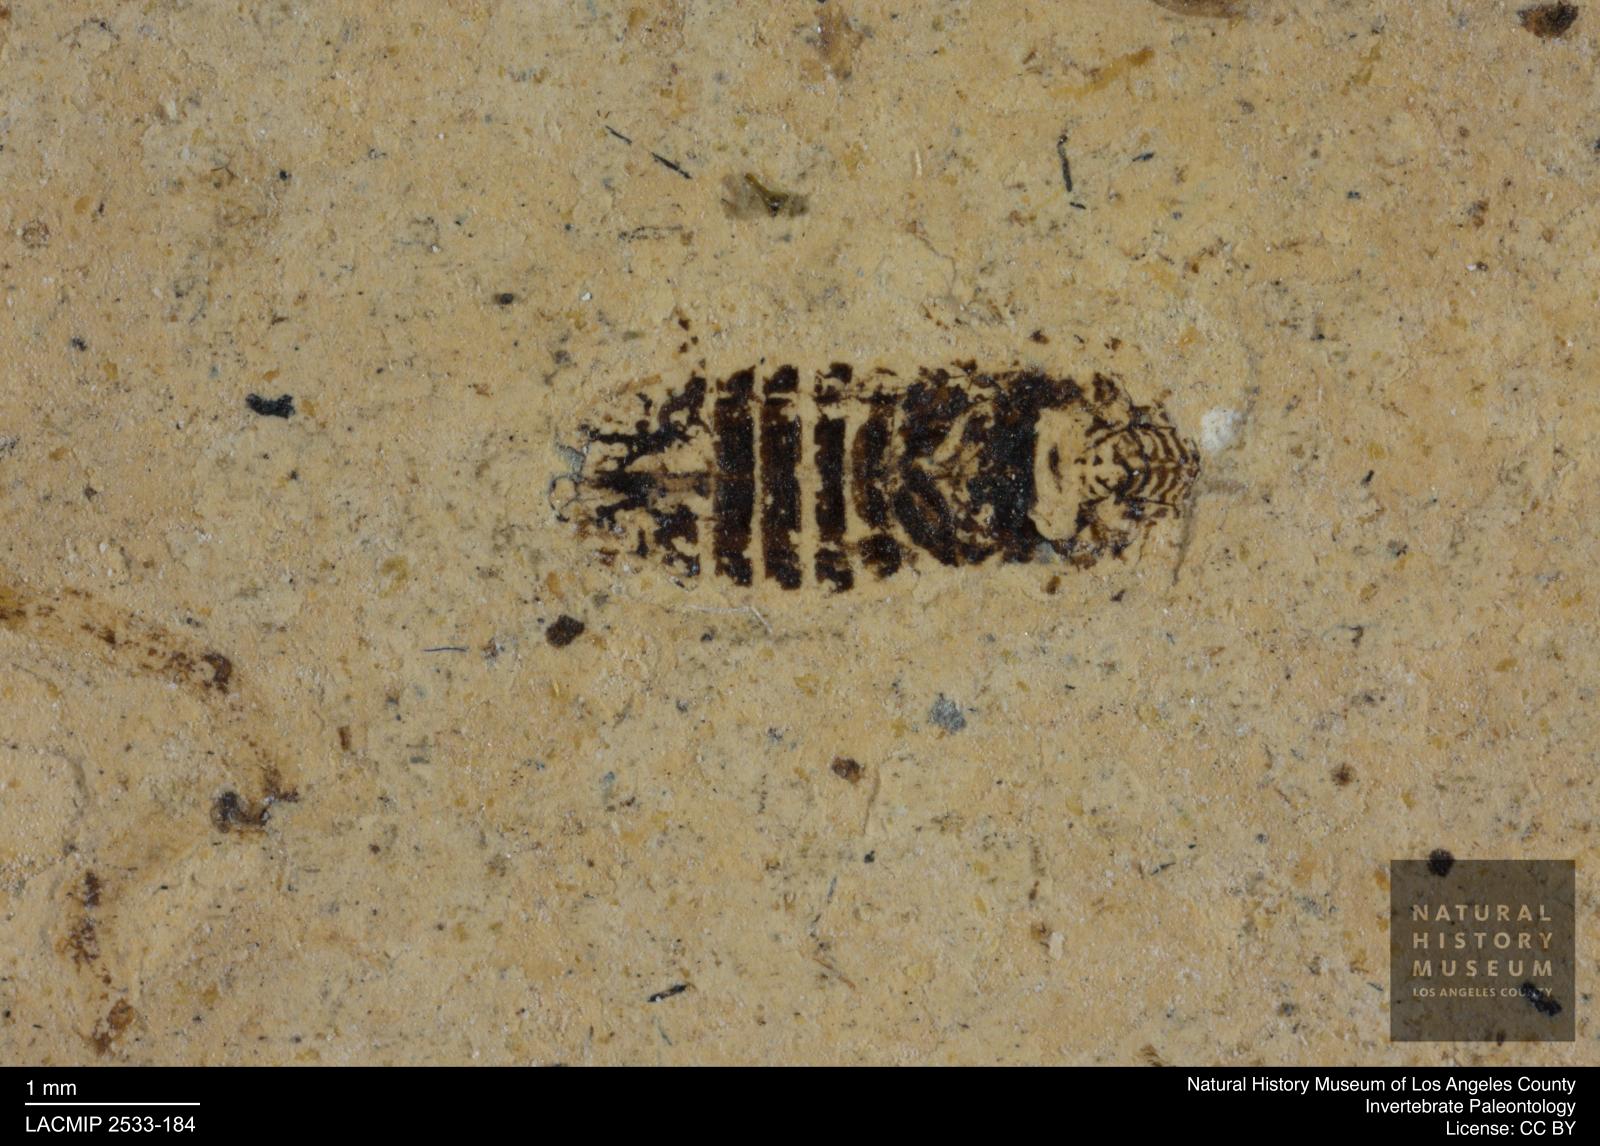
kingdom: Animalia
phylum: Arthropoda
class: Insecta
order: Hemiptera
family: Cicadellidae
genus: Thamnotettix
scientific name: Thamnotettix
